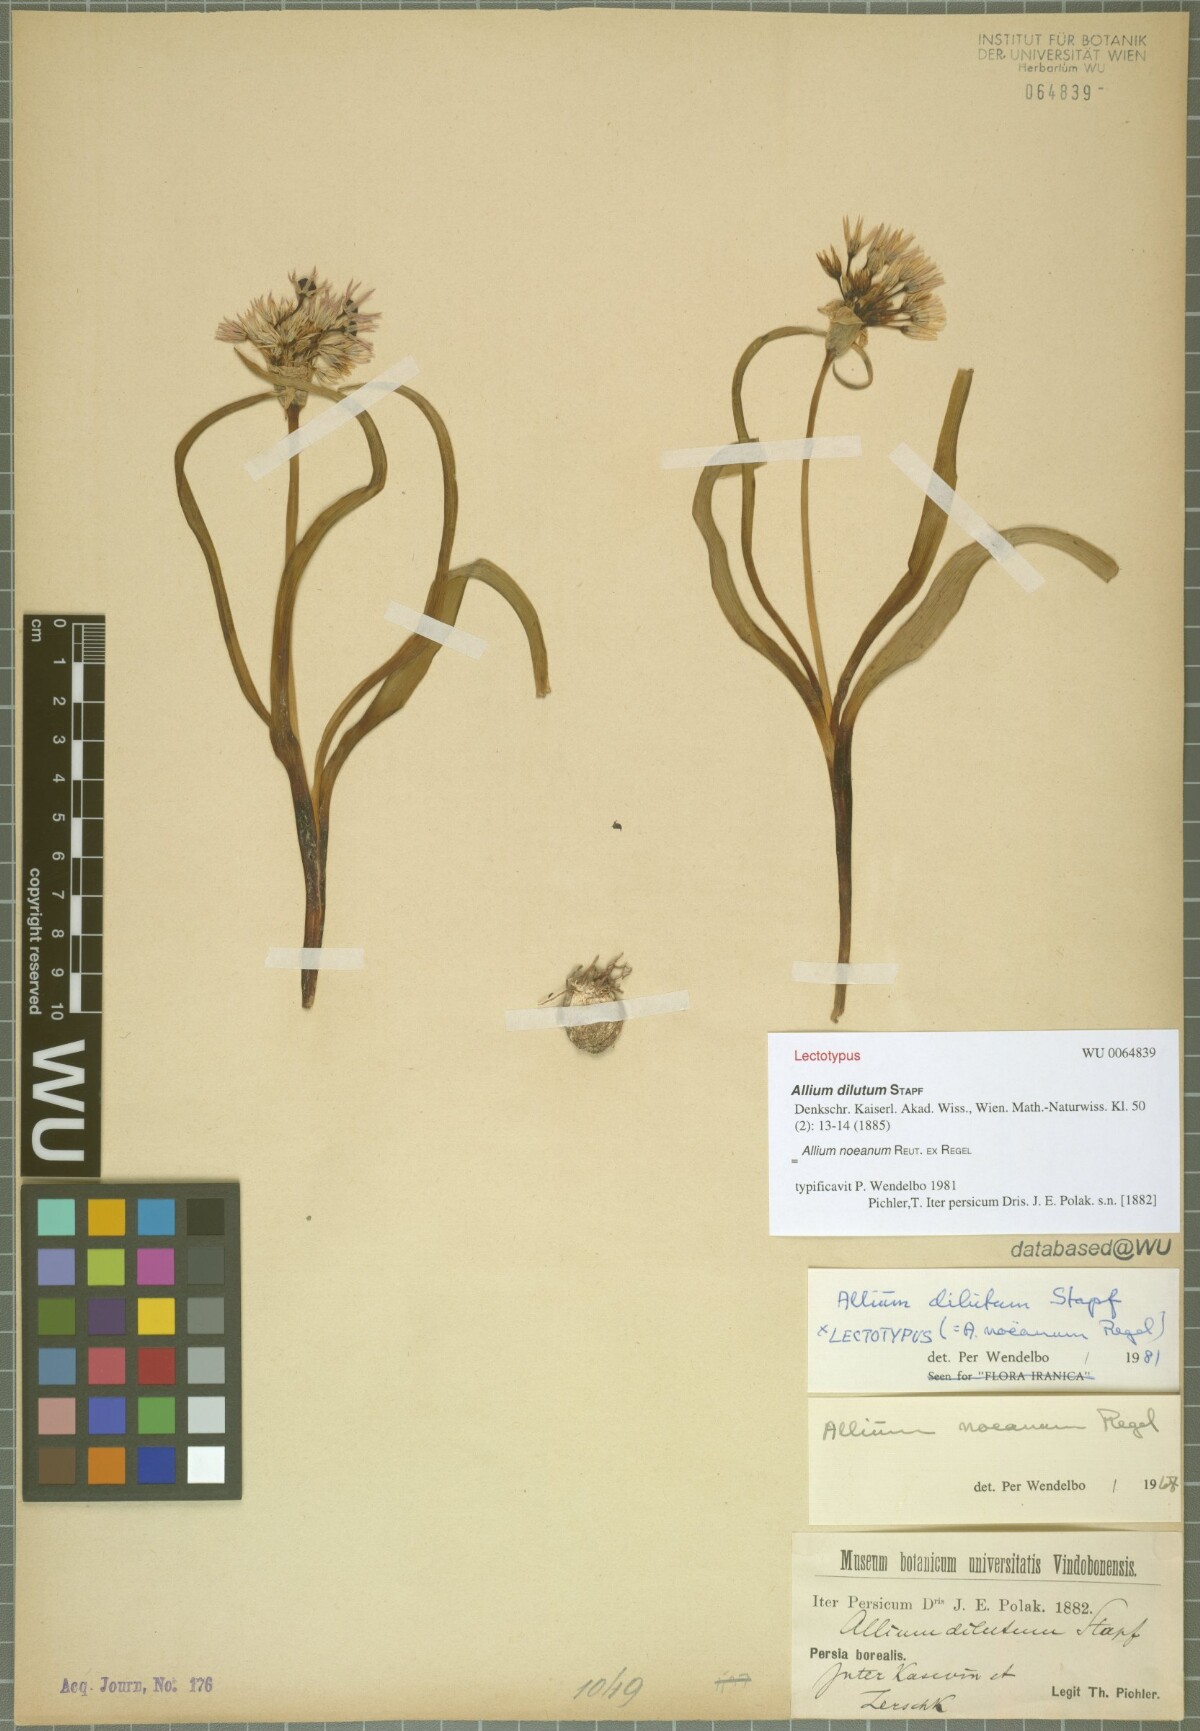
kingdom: Plantae
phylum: Tracheophyta
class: Liliopsida
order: Asparagales
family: Amaryllidaceae
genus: Allium
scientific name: Allium noeanum
